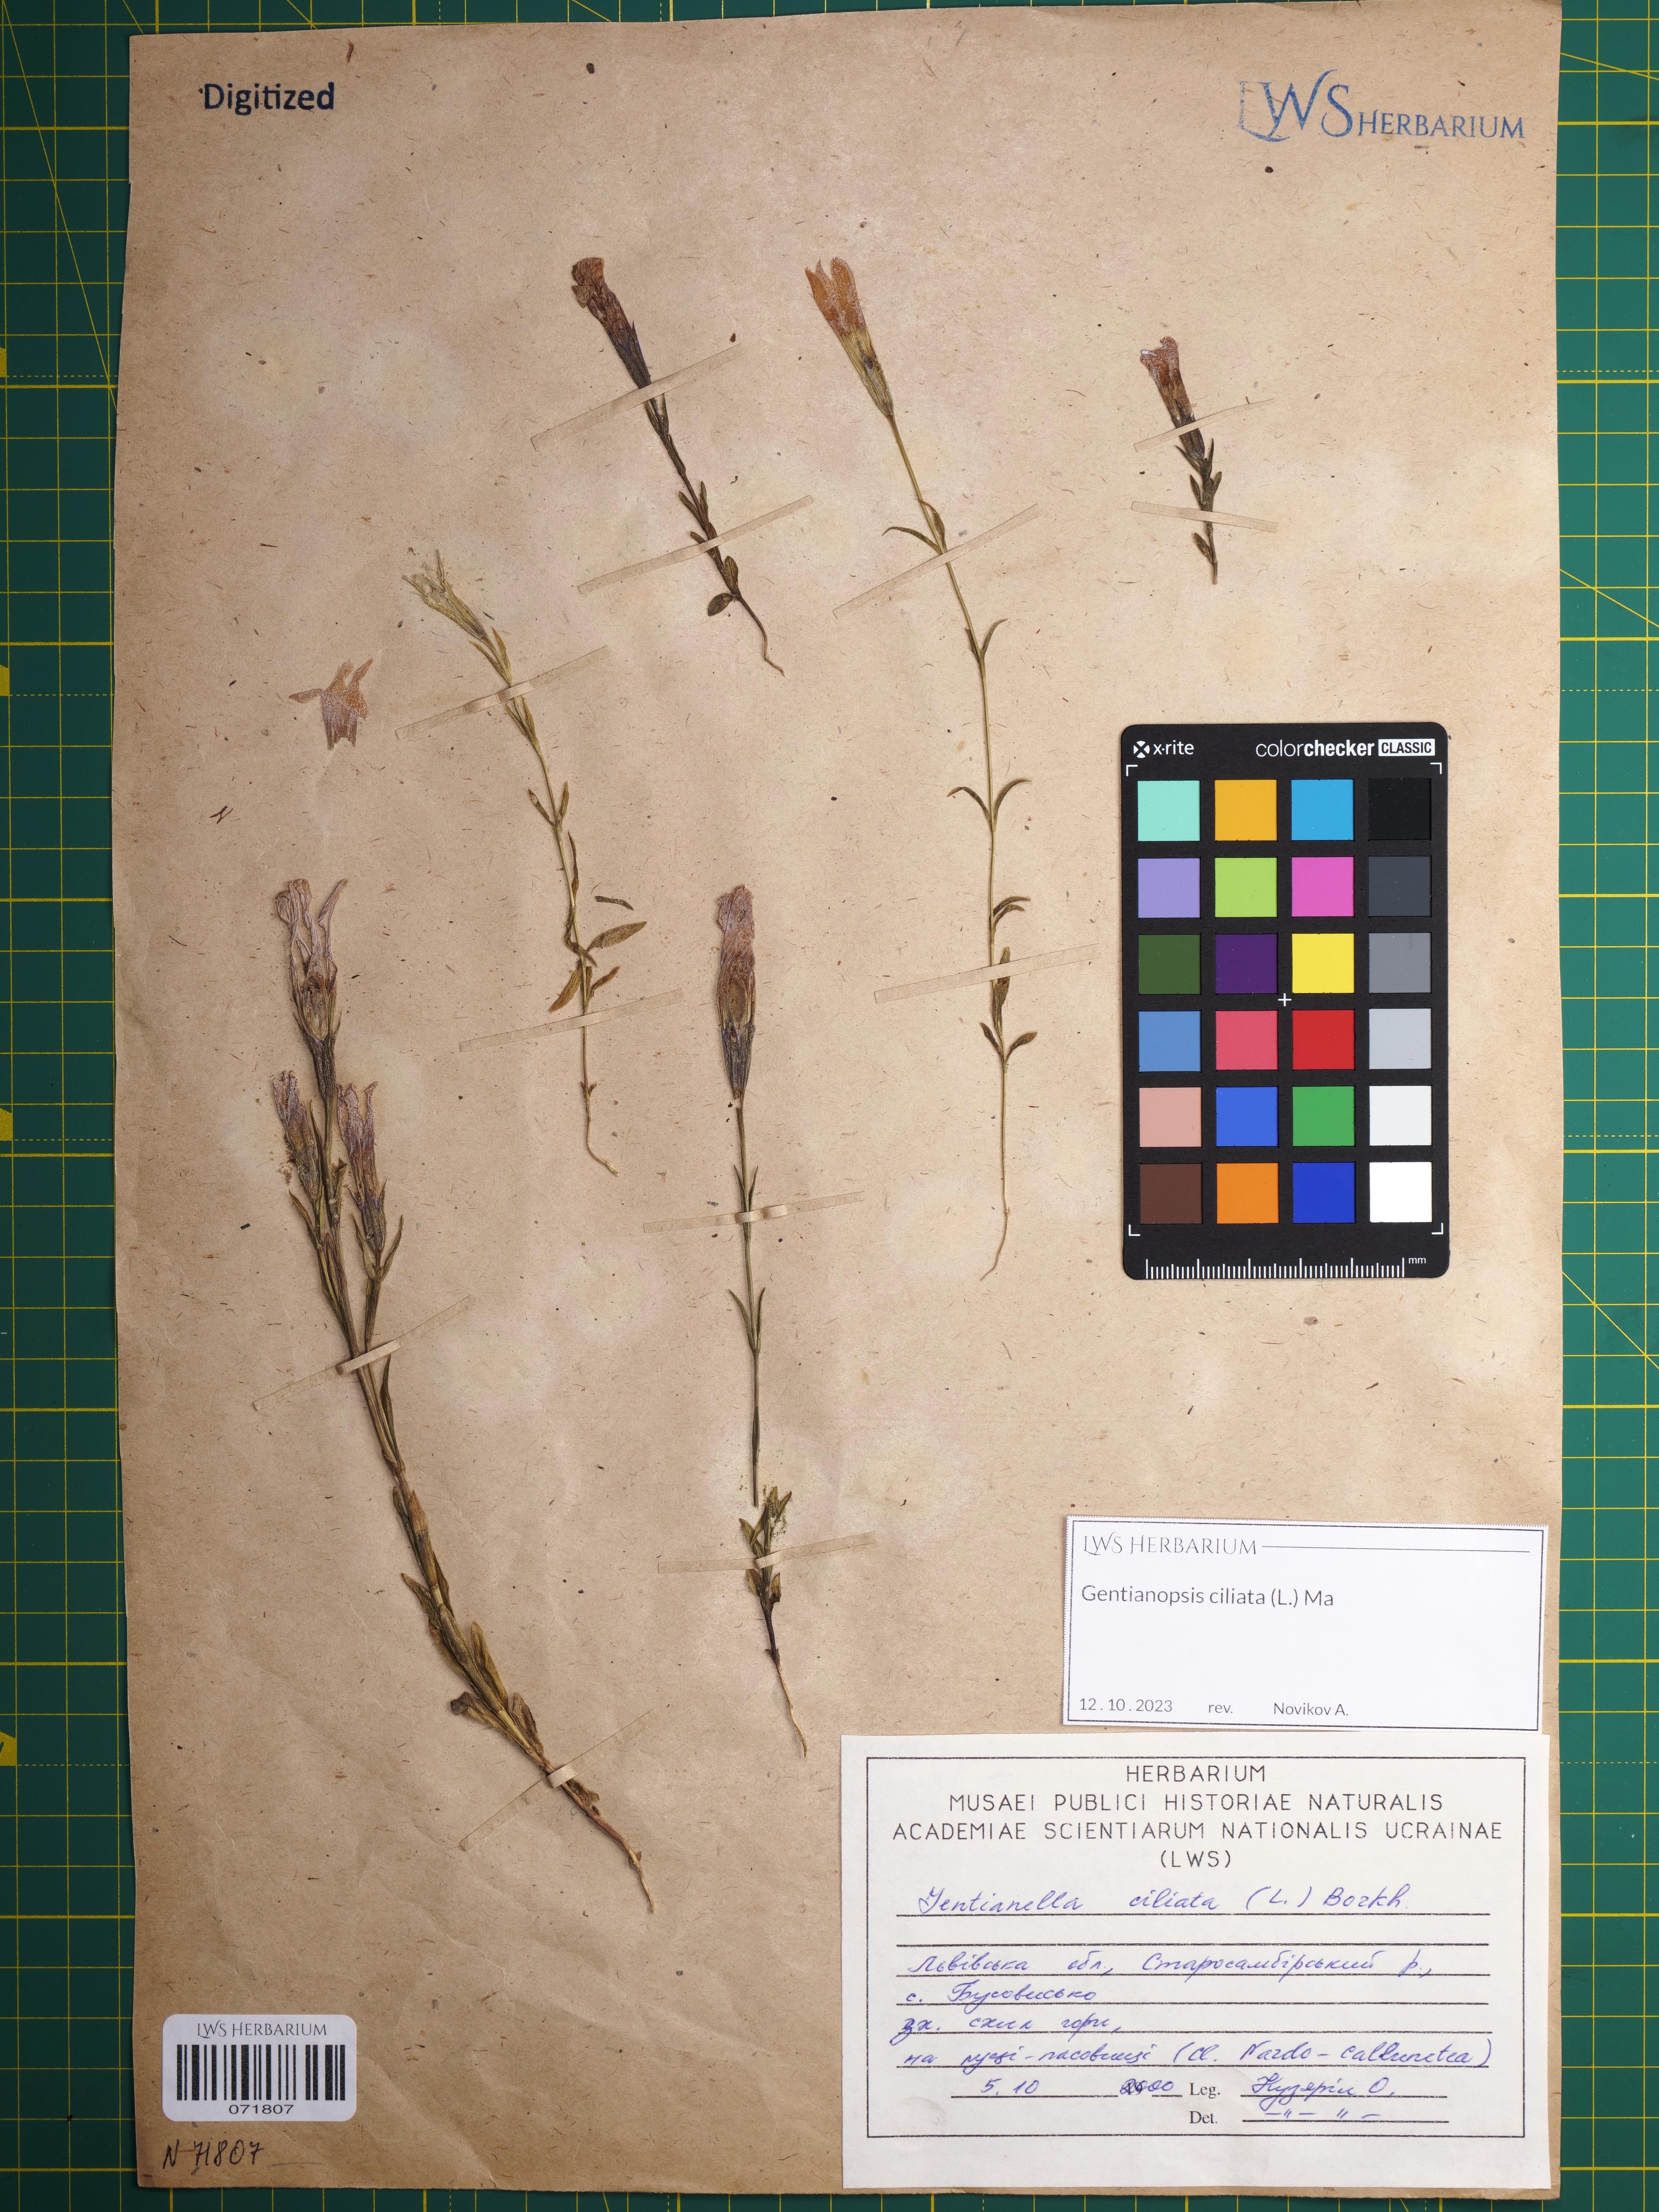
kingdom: Plantae
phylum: Tracheophyta
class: Magnoliopsida
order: Gentianales
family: Gentianaceae
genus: Gentianopsis
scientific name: Gentianopsis ciliata
